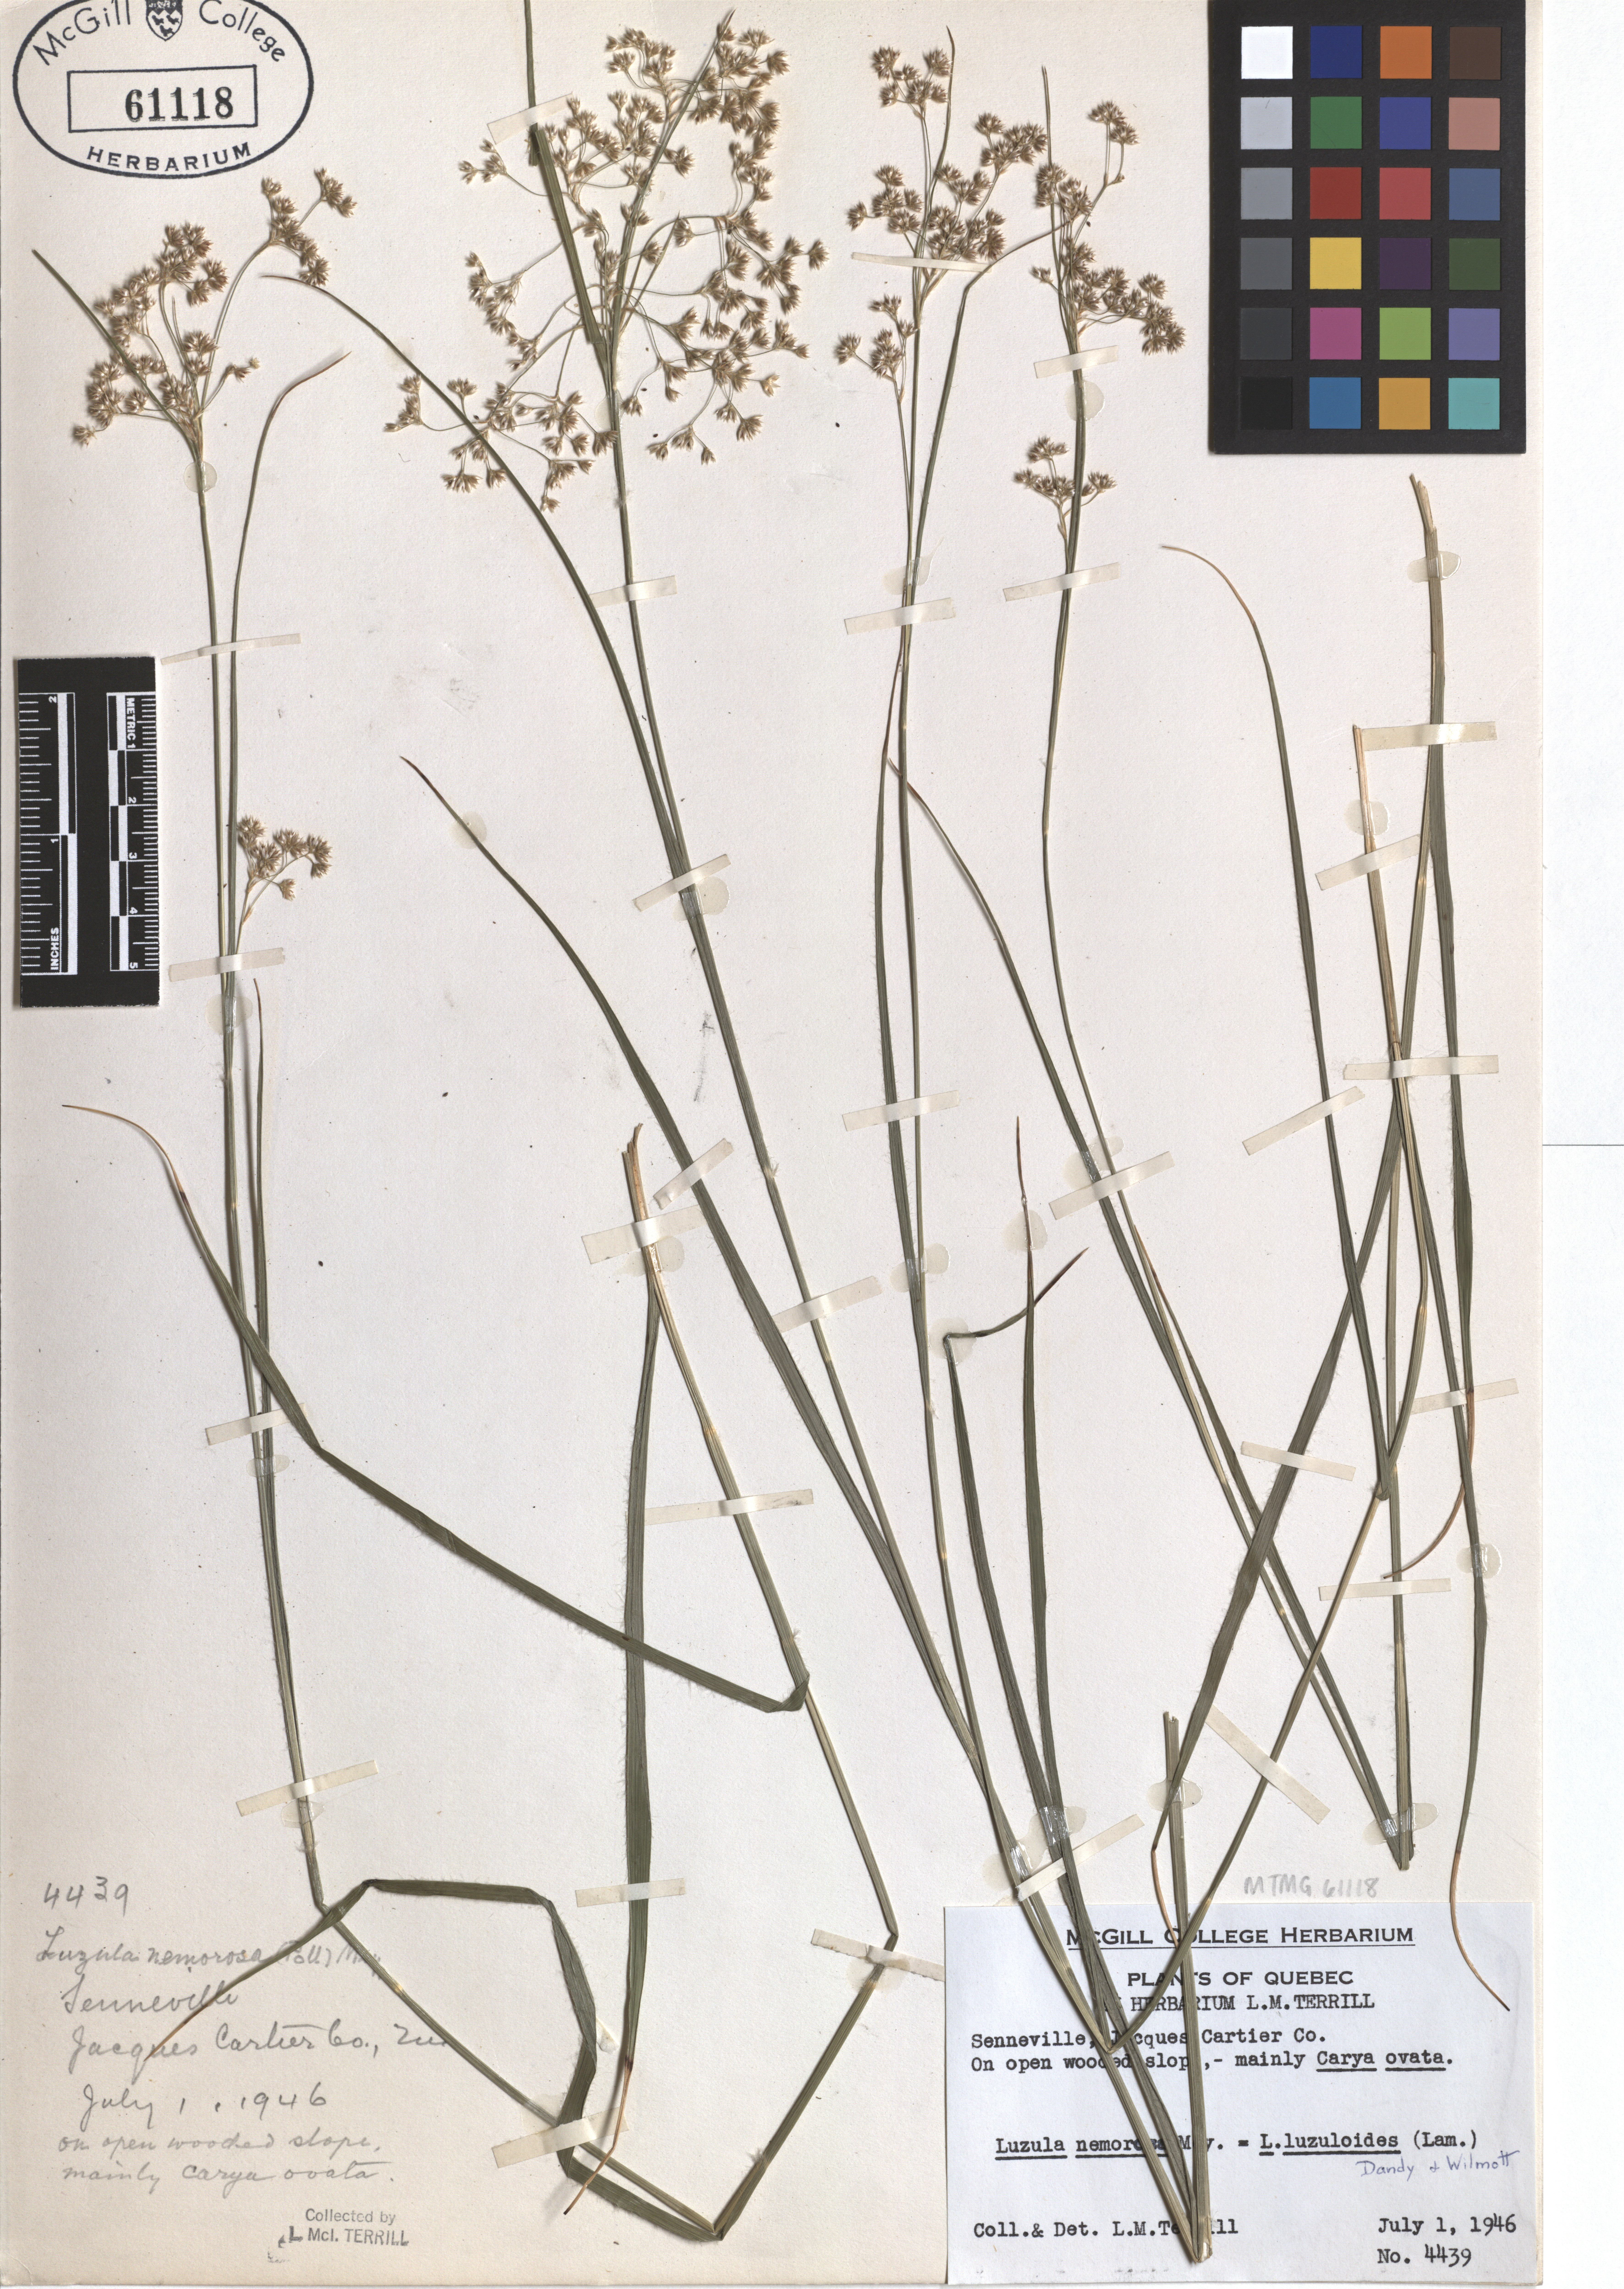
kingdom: Plantae
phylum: Tracheophyta
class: Liliopsida
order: Poales
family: Juncaceae
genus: Luzula
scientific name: Luzula luzuloides
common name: White wood-rush
